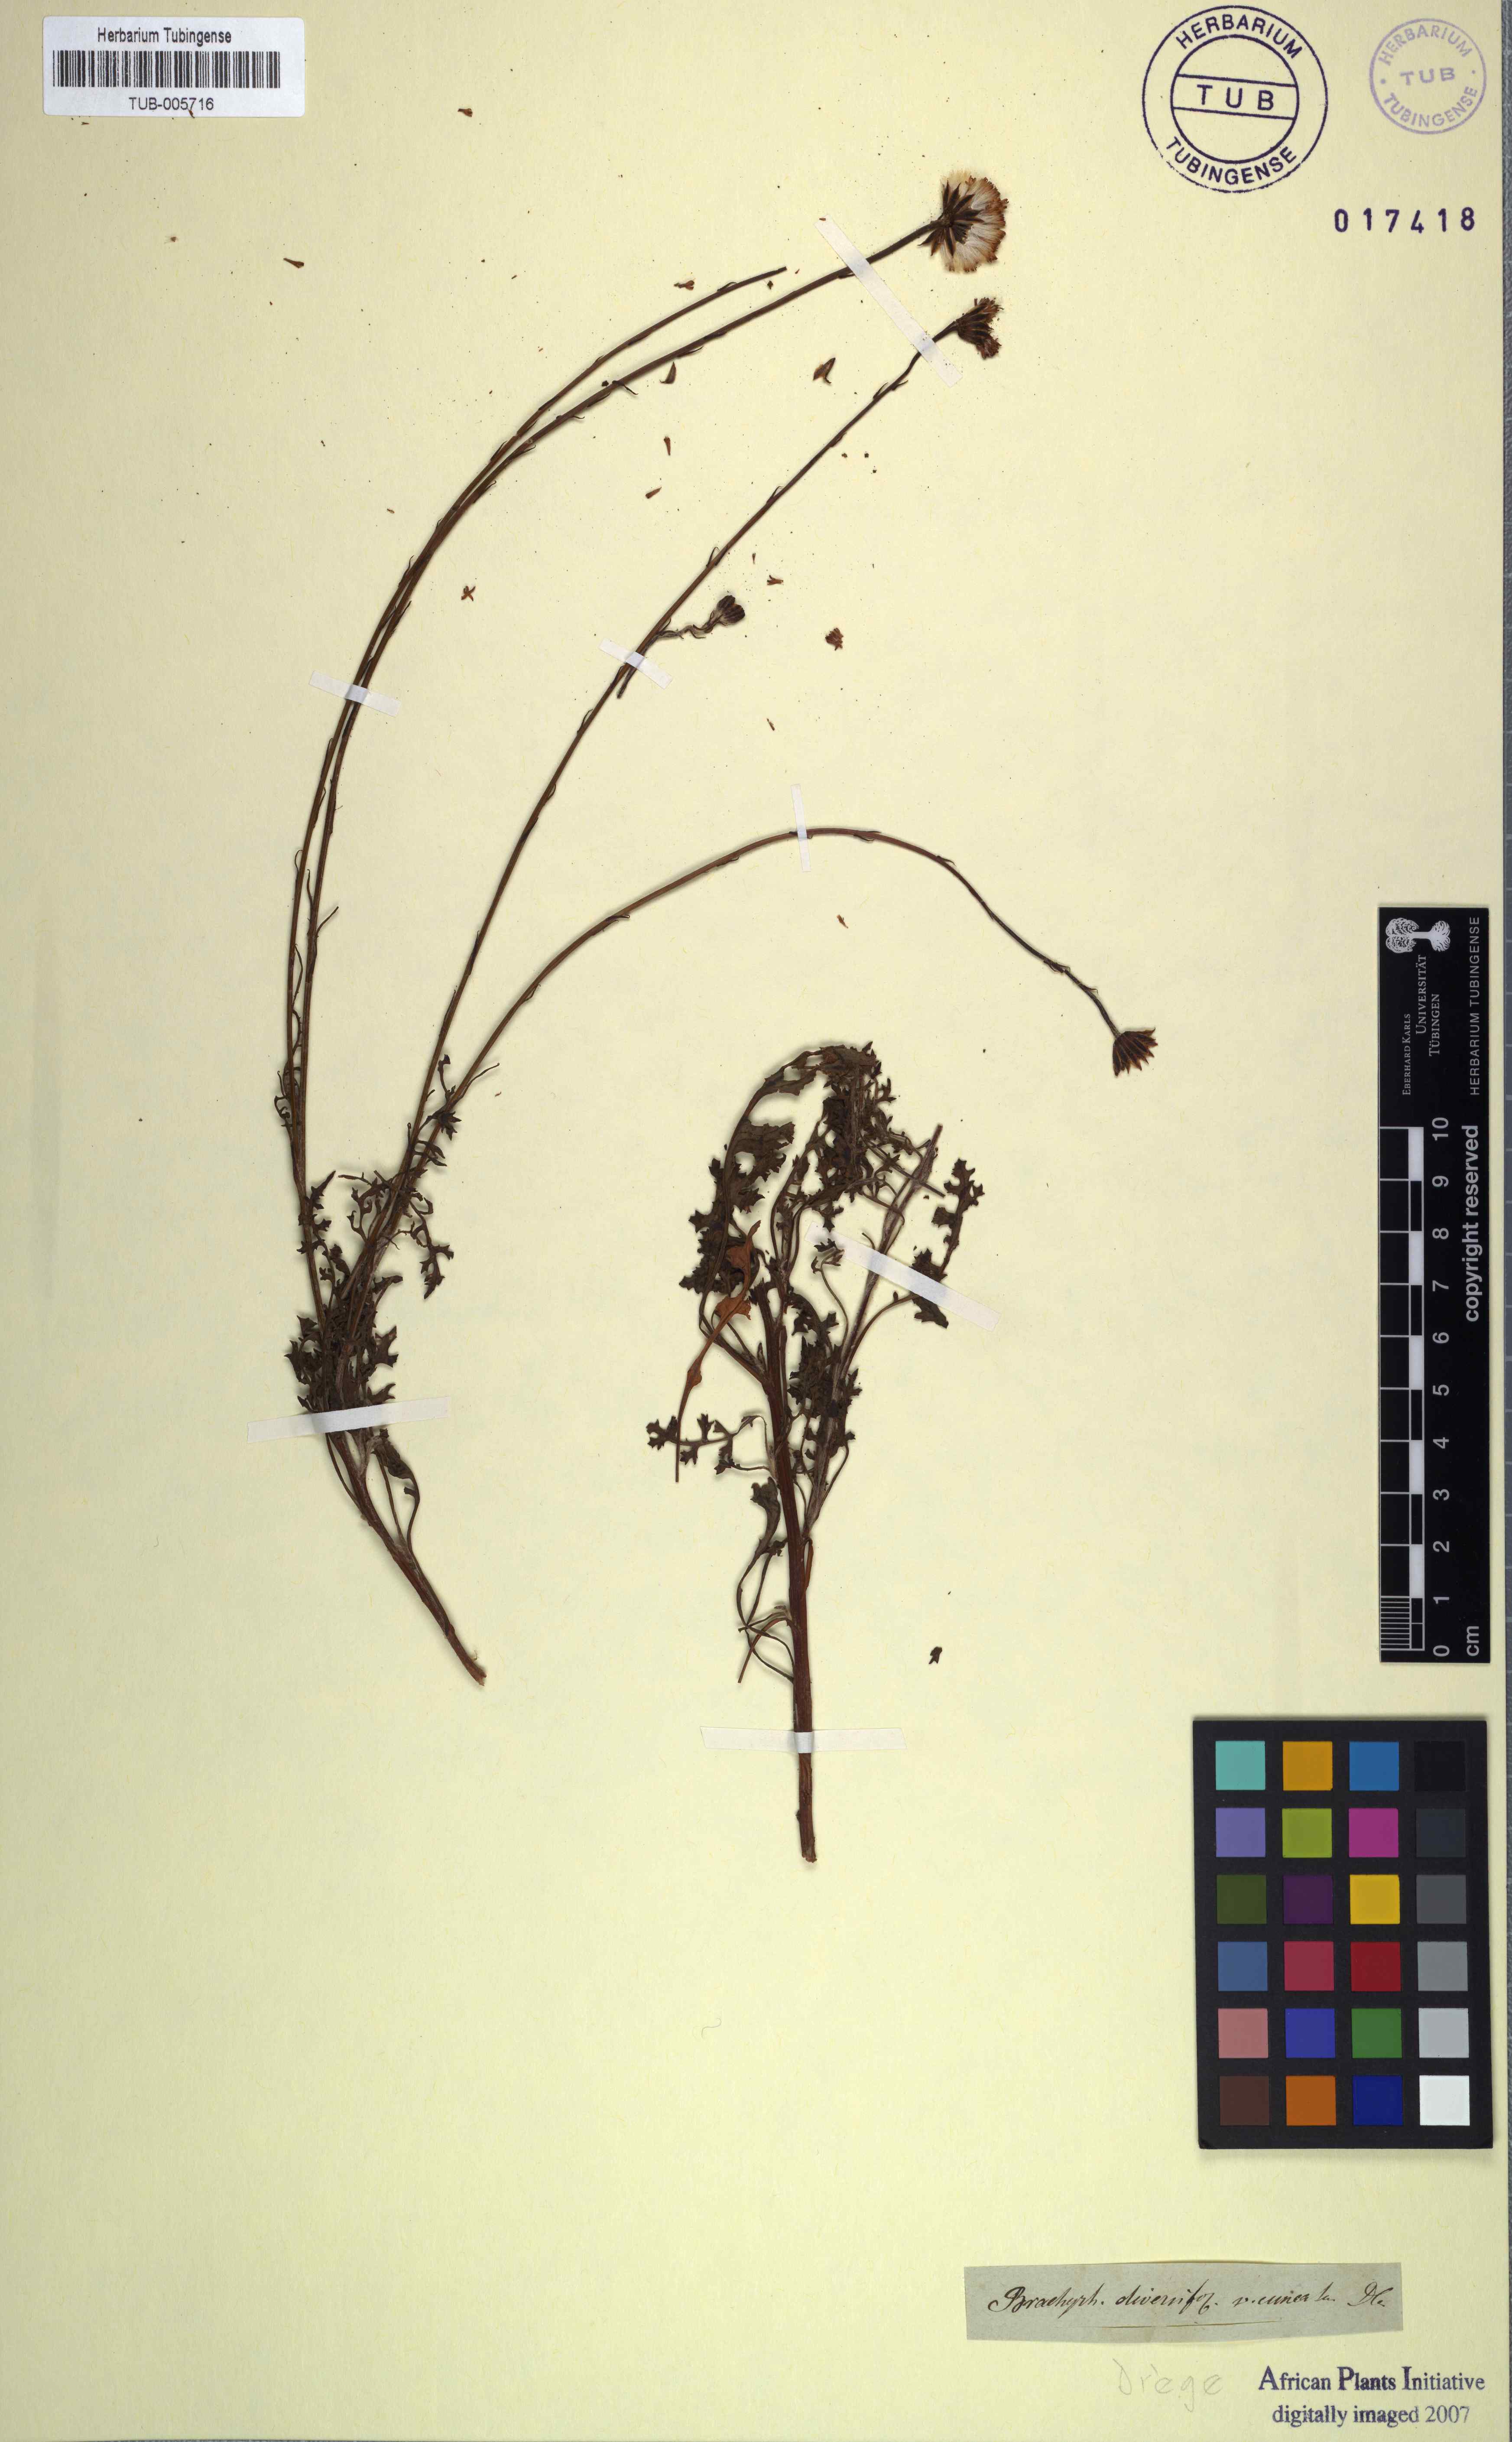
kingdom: Plantae
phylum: Tracheophyta
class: Magnoliopsida
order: Asterales
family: Asteraceae
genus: Bolandia
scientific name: Bolandia elongata
